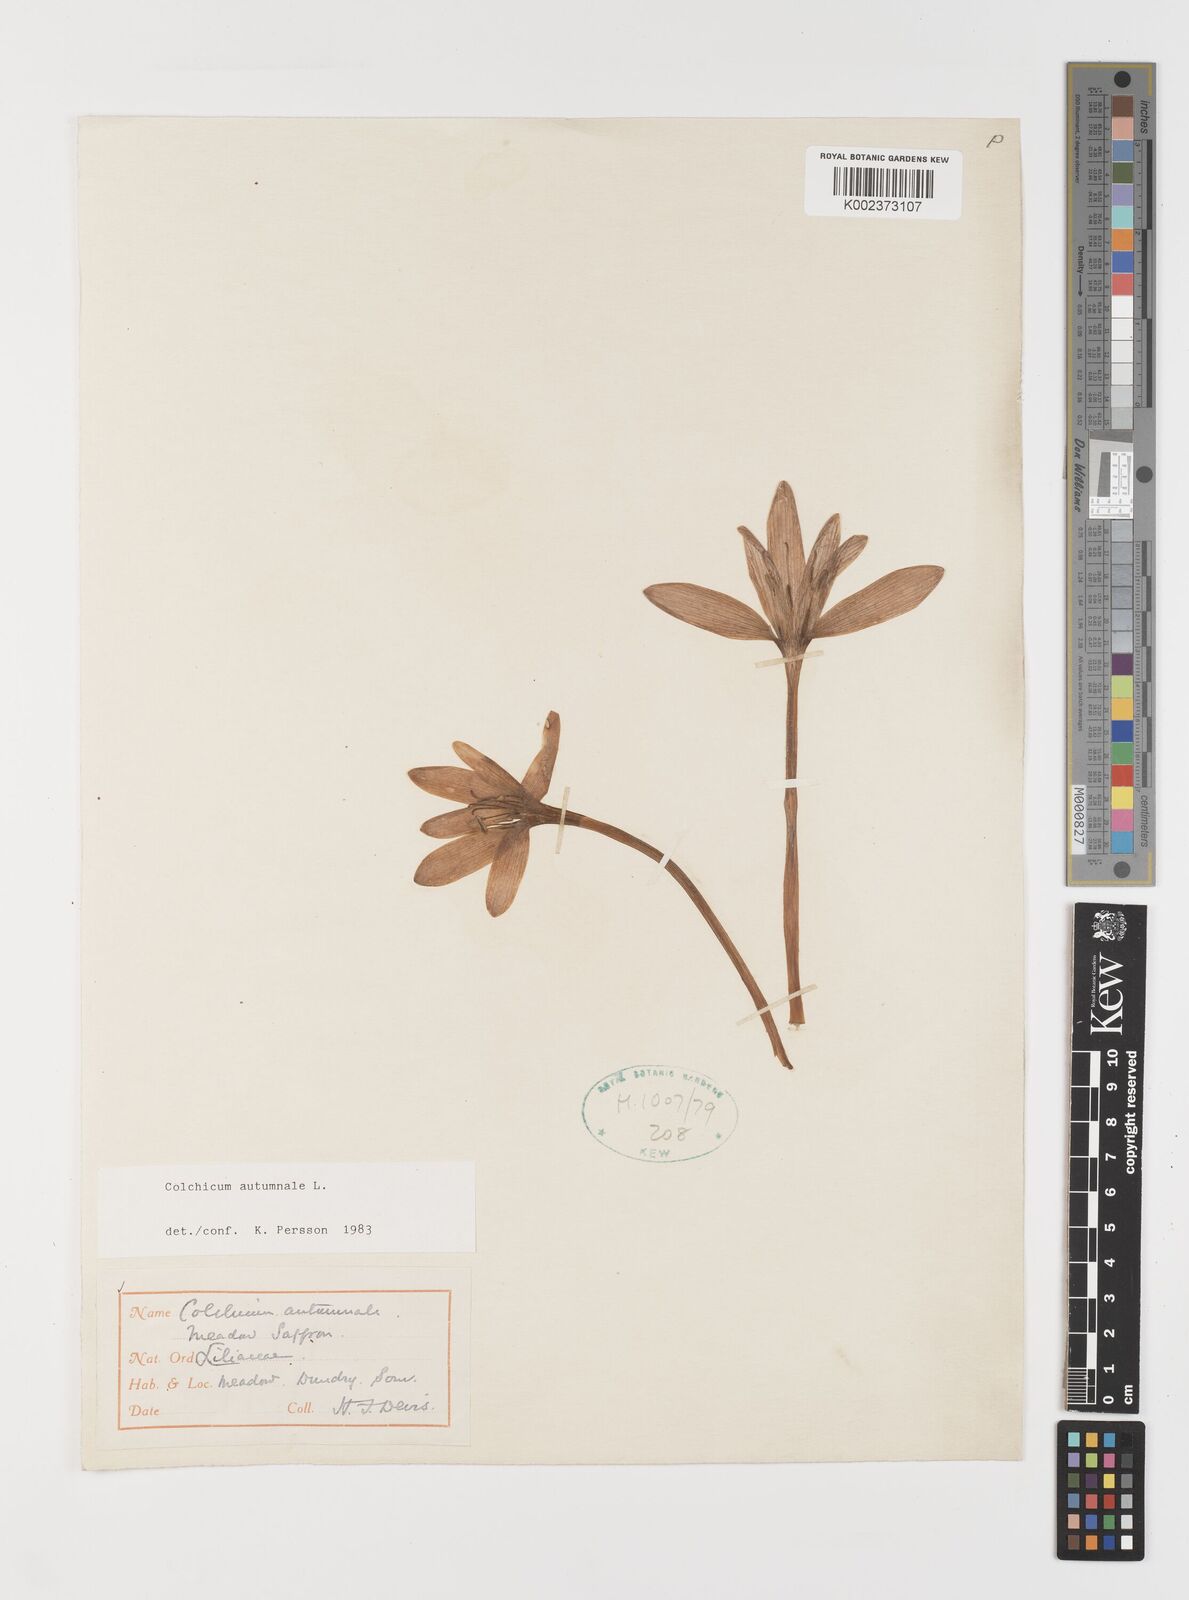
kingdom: Plantae
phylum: Tracheophyta
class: Liliopsida
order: Liliales
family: Colchicaceae
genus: Colchicum
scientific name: Colchicum autumnale
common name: Autumn crocus
